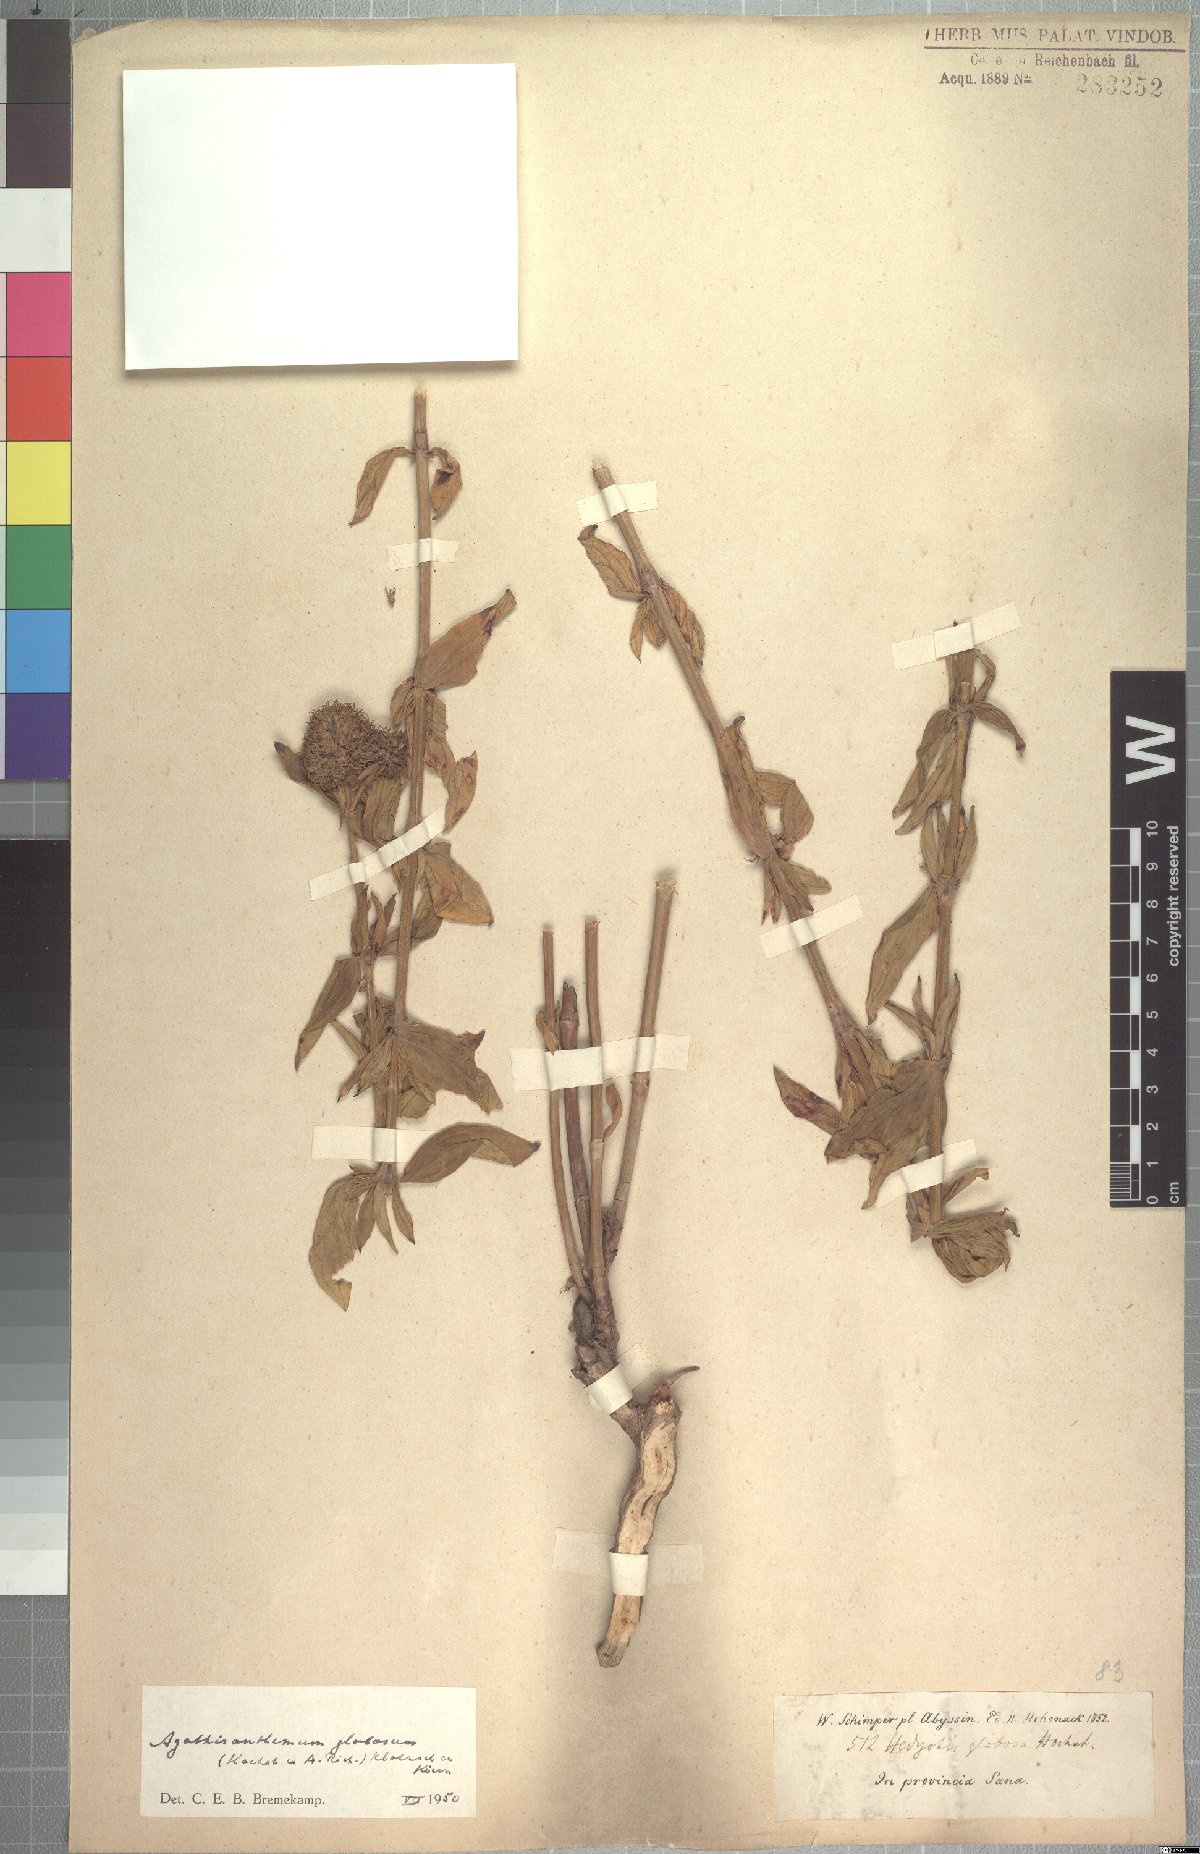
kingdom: Plantae
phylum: Tracheophyta
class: Magnoliopsida
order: Gentianales
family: Rubiaceae
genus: Agathisanthemum
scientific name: Agathisanthemum globosum
